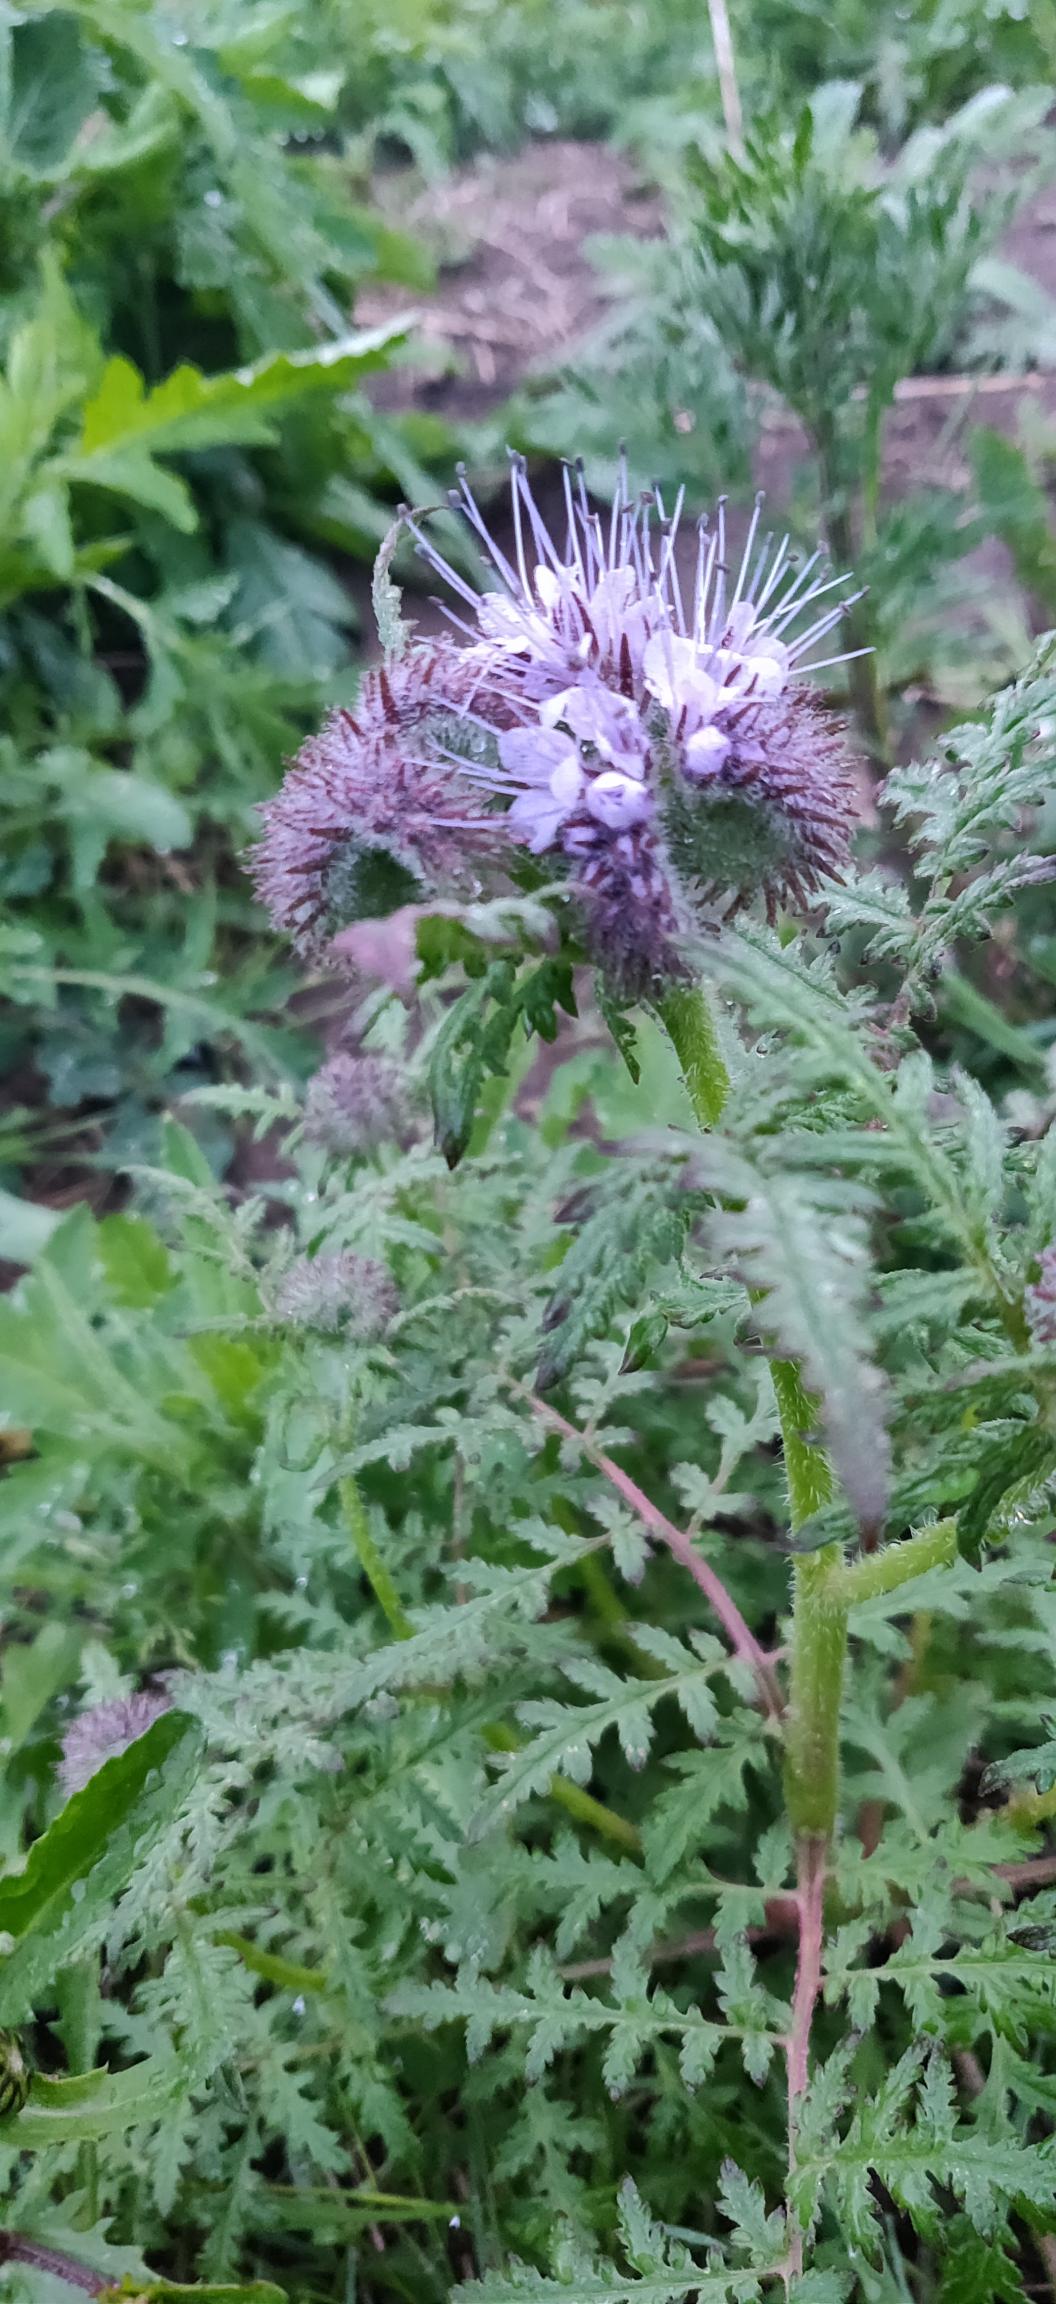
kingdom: Plantae
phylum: Tracheophyta
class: Magnoliopsida
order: Boraginales
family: Hydrophyllaceae
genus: Phacelia
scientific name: Phacelia tanacetifolia
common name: Honningurt
